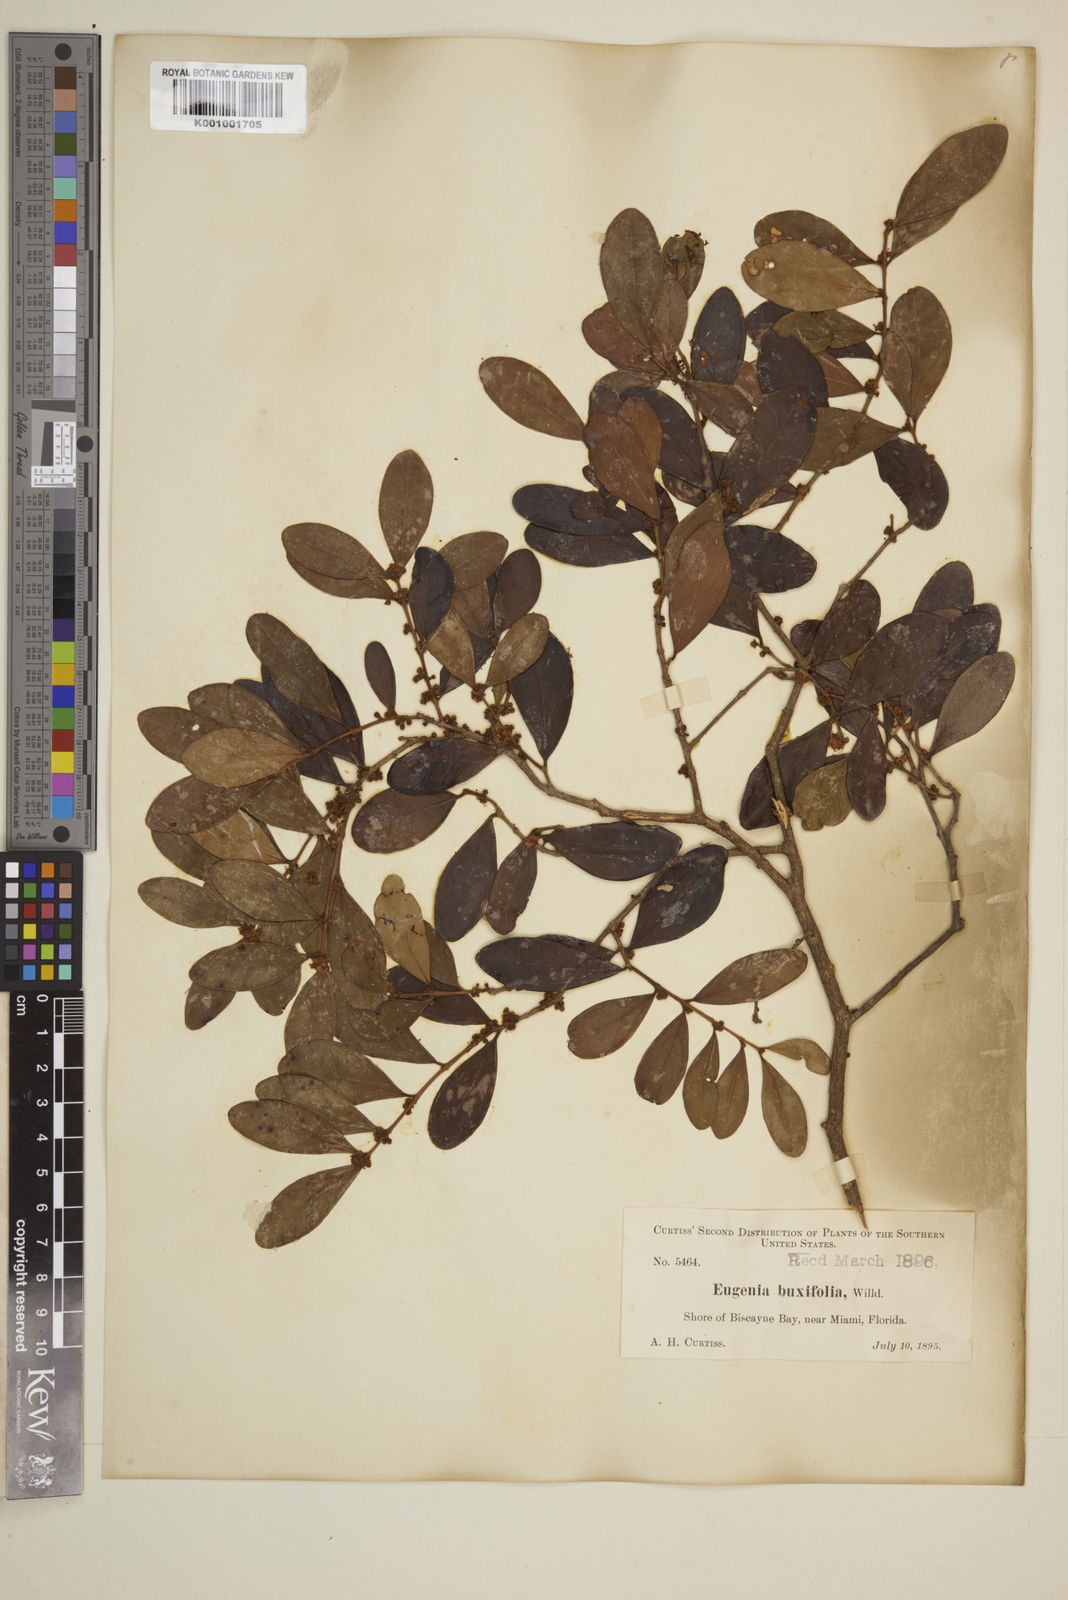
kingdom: Plantae
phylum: Tracheophyta
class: Magnoliopsida
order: Myrtales
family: Myrtaceae
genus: Eugenia
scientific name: Eugenia buxifolia
